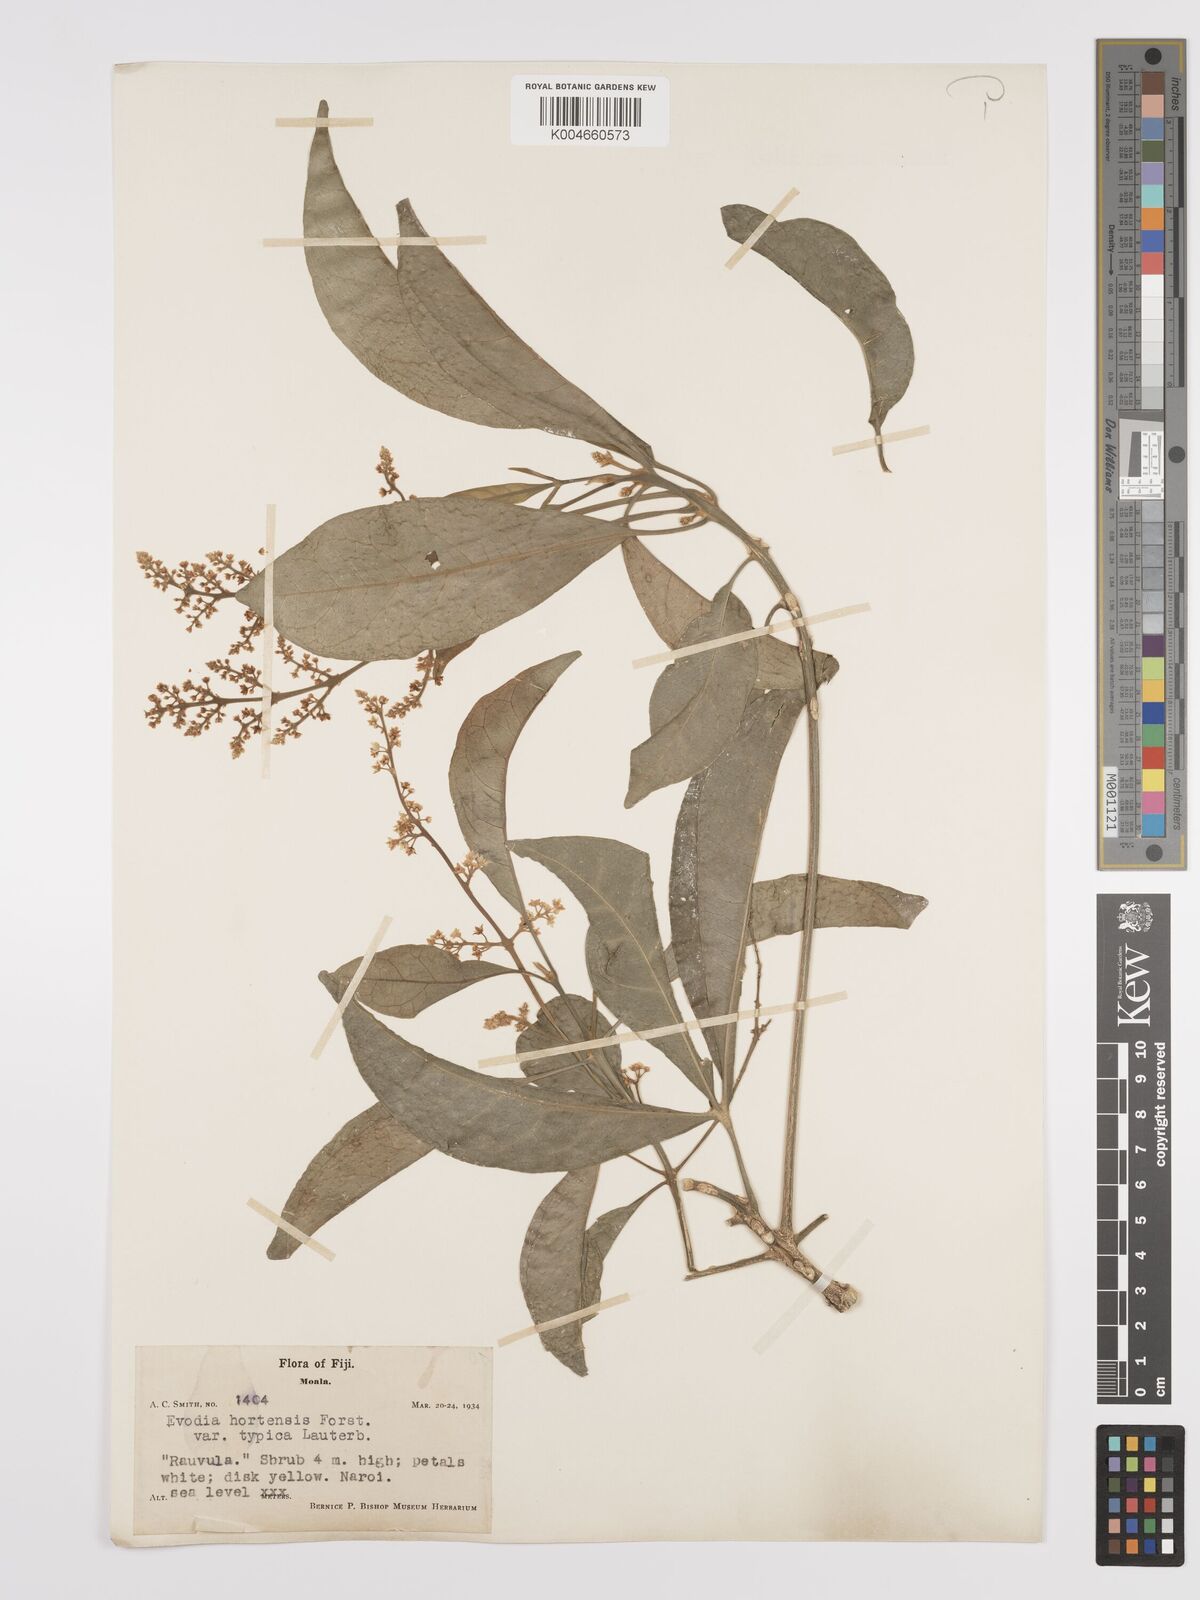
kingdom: Plantae
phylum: Tracheophyta
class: Magnoliopsida
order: Sapindales
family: Rutaceae
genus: Euodia
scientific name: Euodia hortensis
